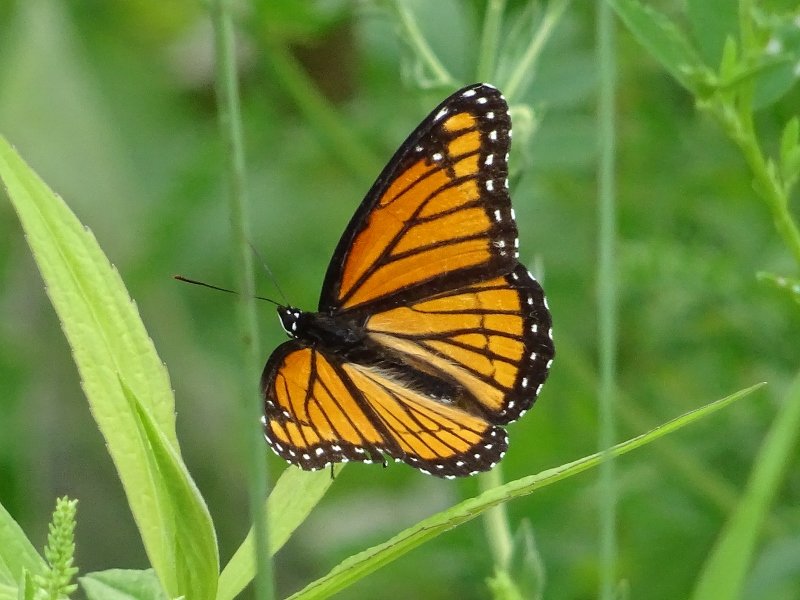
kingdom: Animalia
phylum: Arthropoda
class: Insecta
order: Lepidoptera
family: Nymphalidae
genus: Limenitis
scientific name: Limenitis archippus
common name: Viceroy
